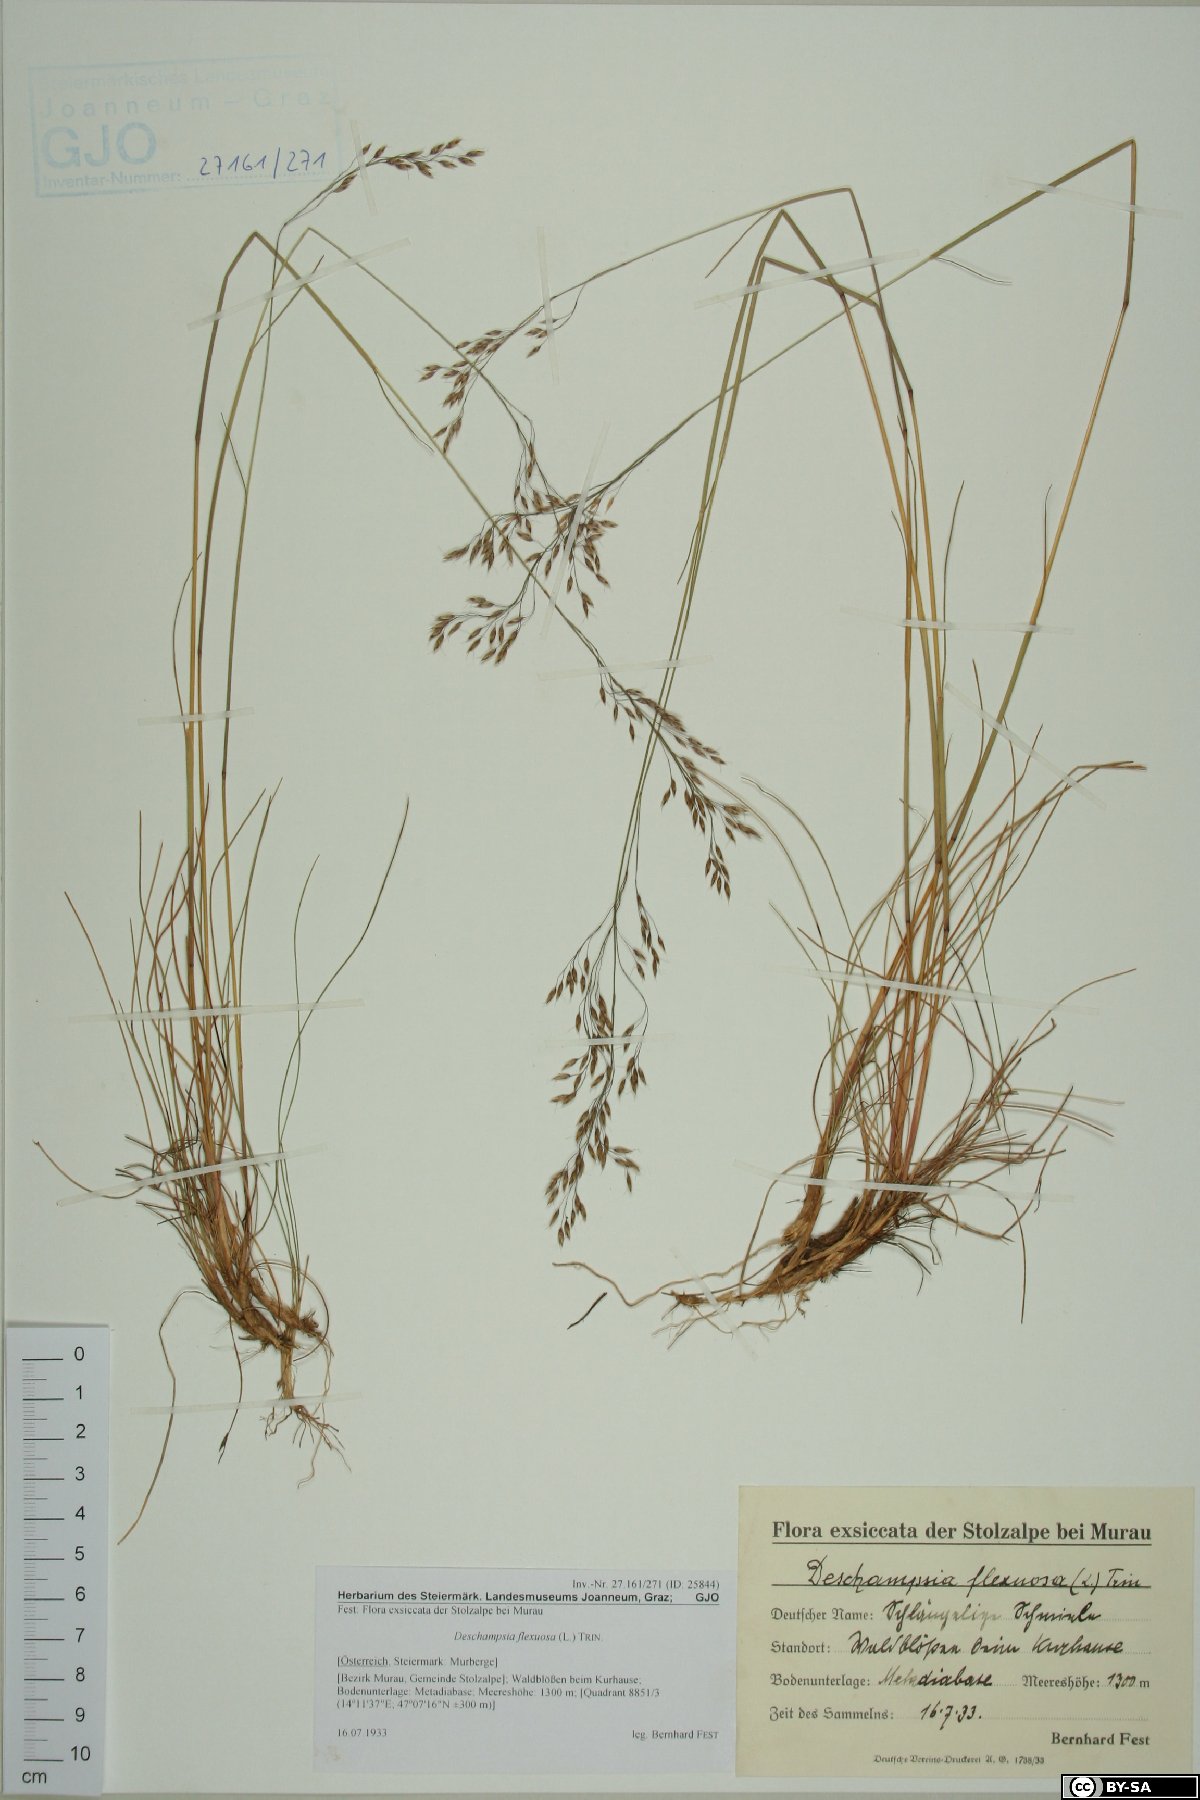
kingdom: Plantae
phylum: Tracheophyta
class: Liliopsida
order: Poales
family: Poaceae
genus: Avenella
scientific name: Avenella flexuosa
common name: Wavy hairgrass
